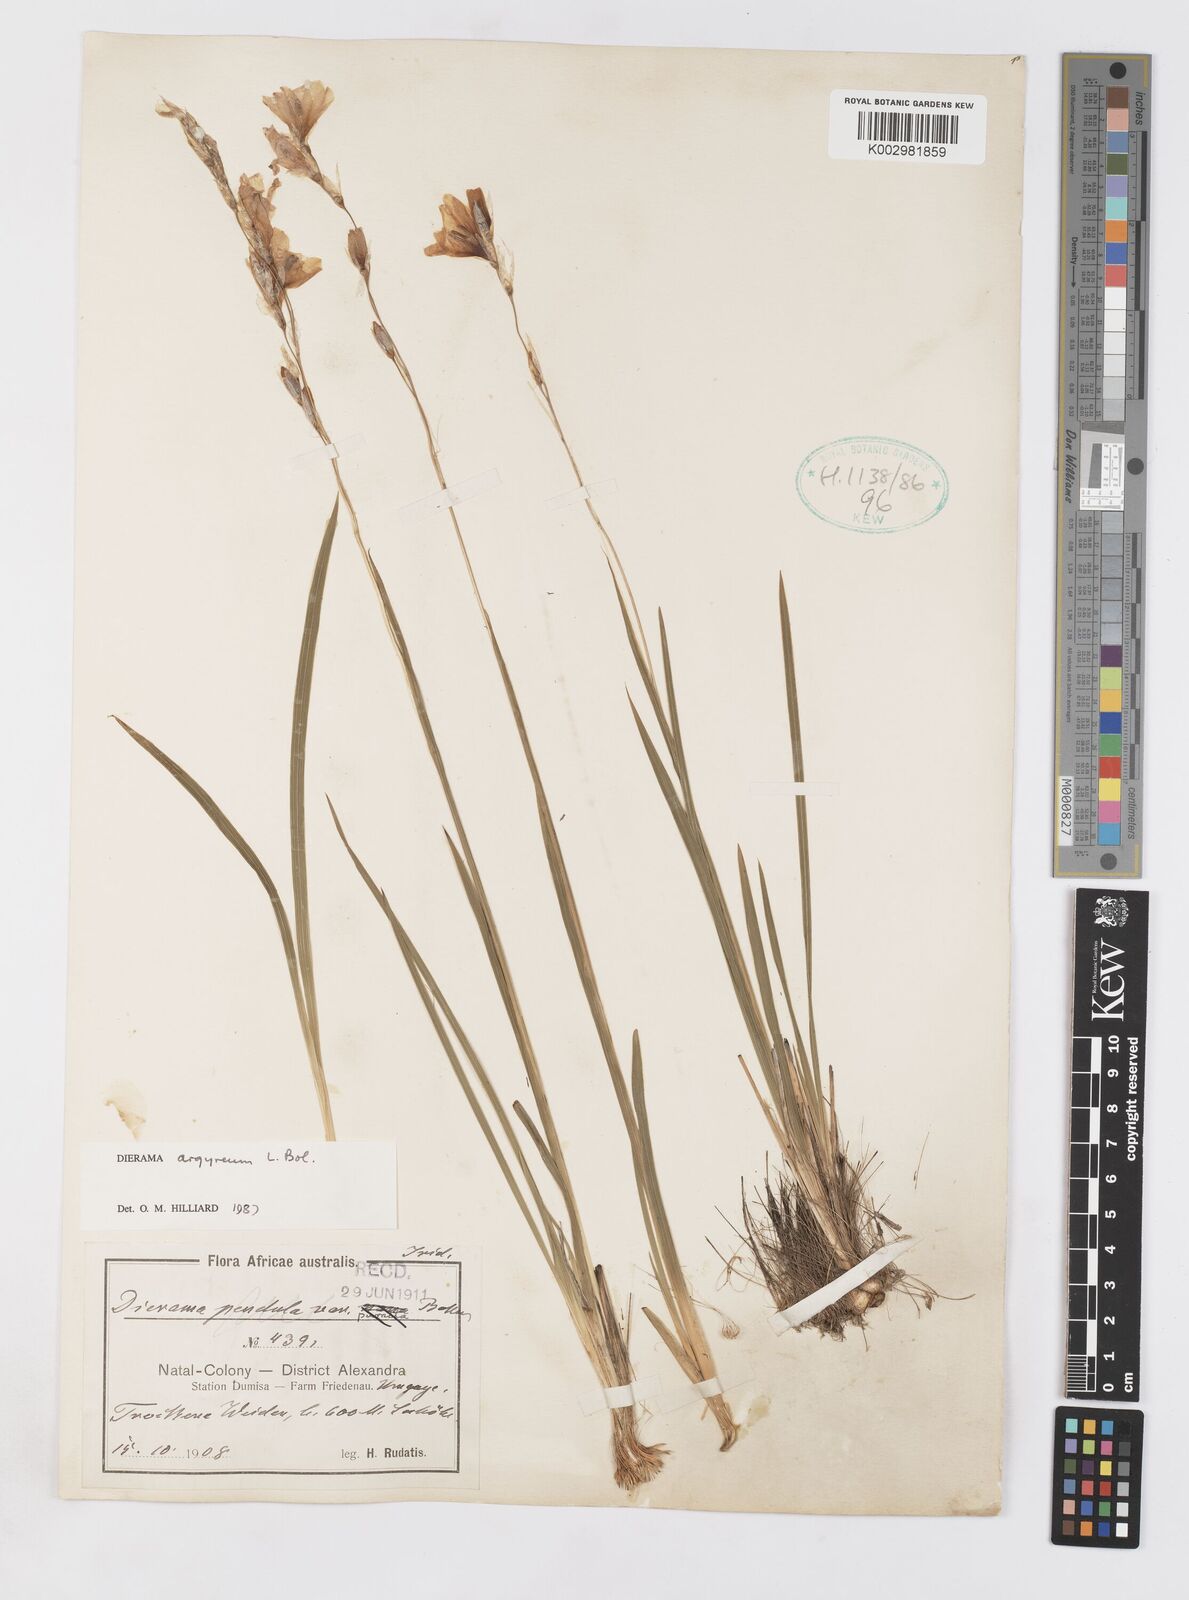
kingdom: Plantae
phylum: Tracheophyta
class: Liliopsida
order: Asparagales
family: Iridaceae
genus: Dierama
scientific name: Dierama argyreum
